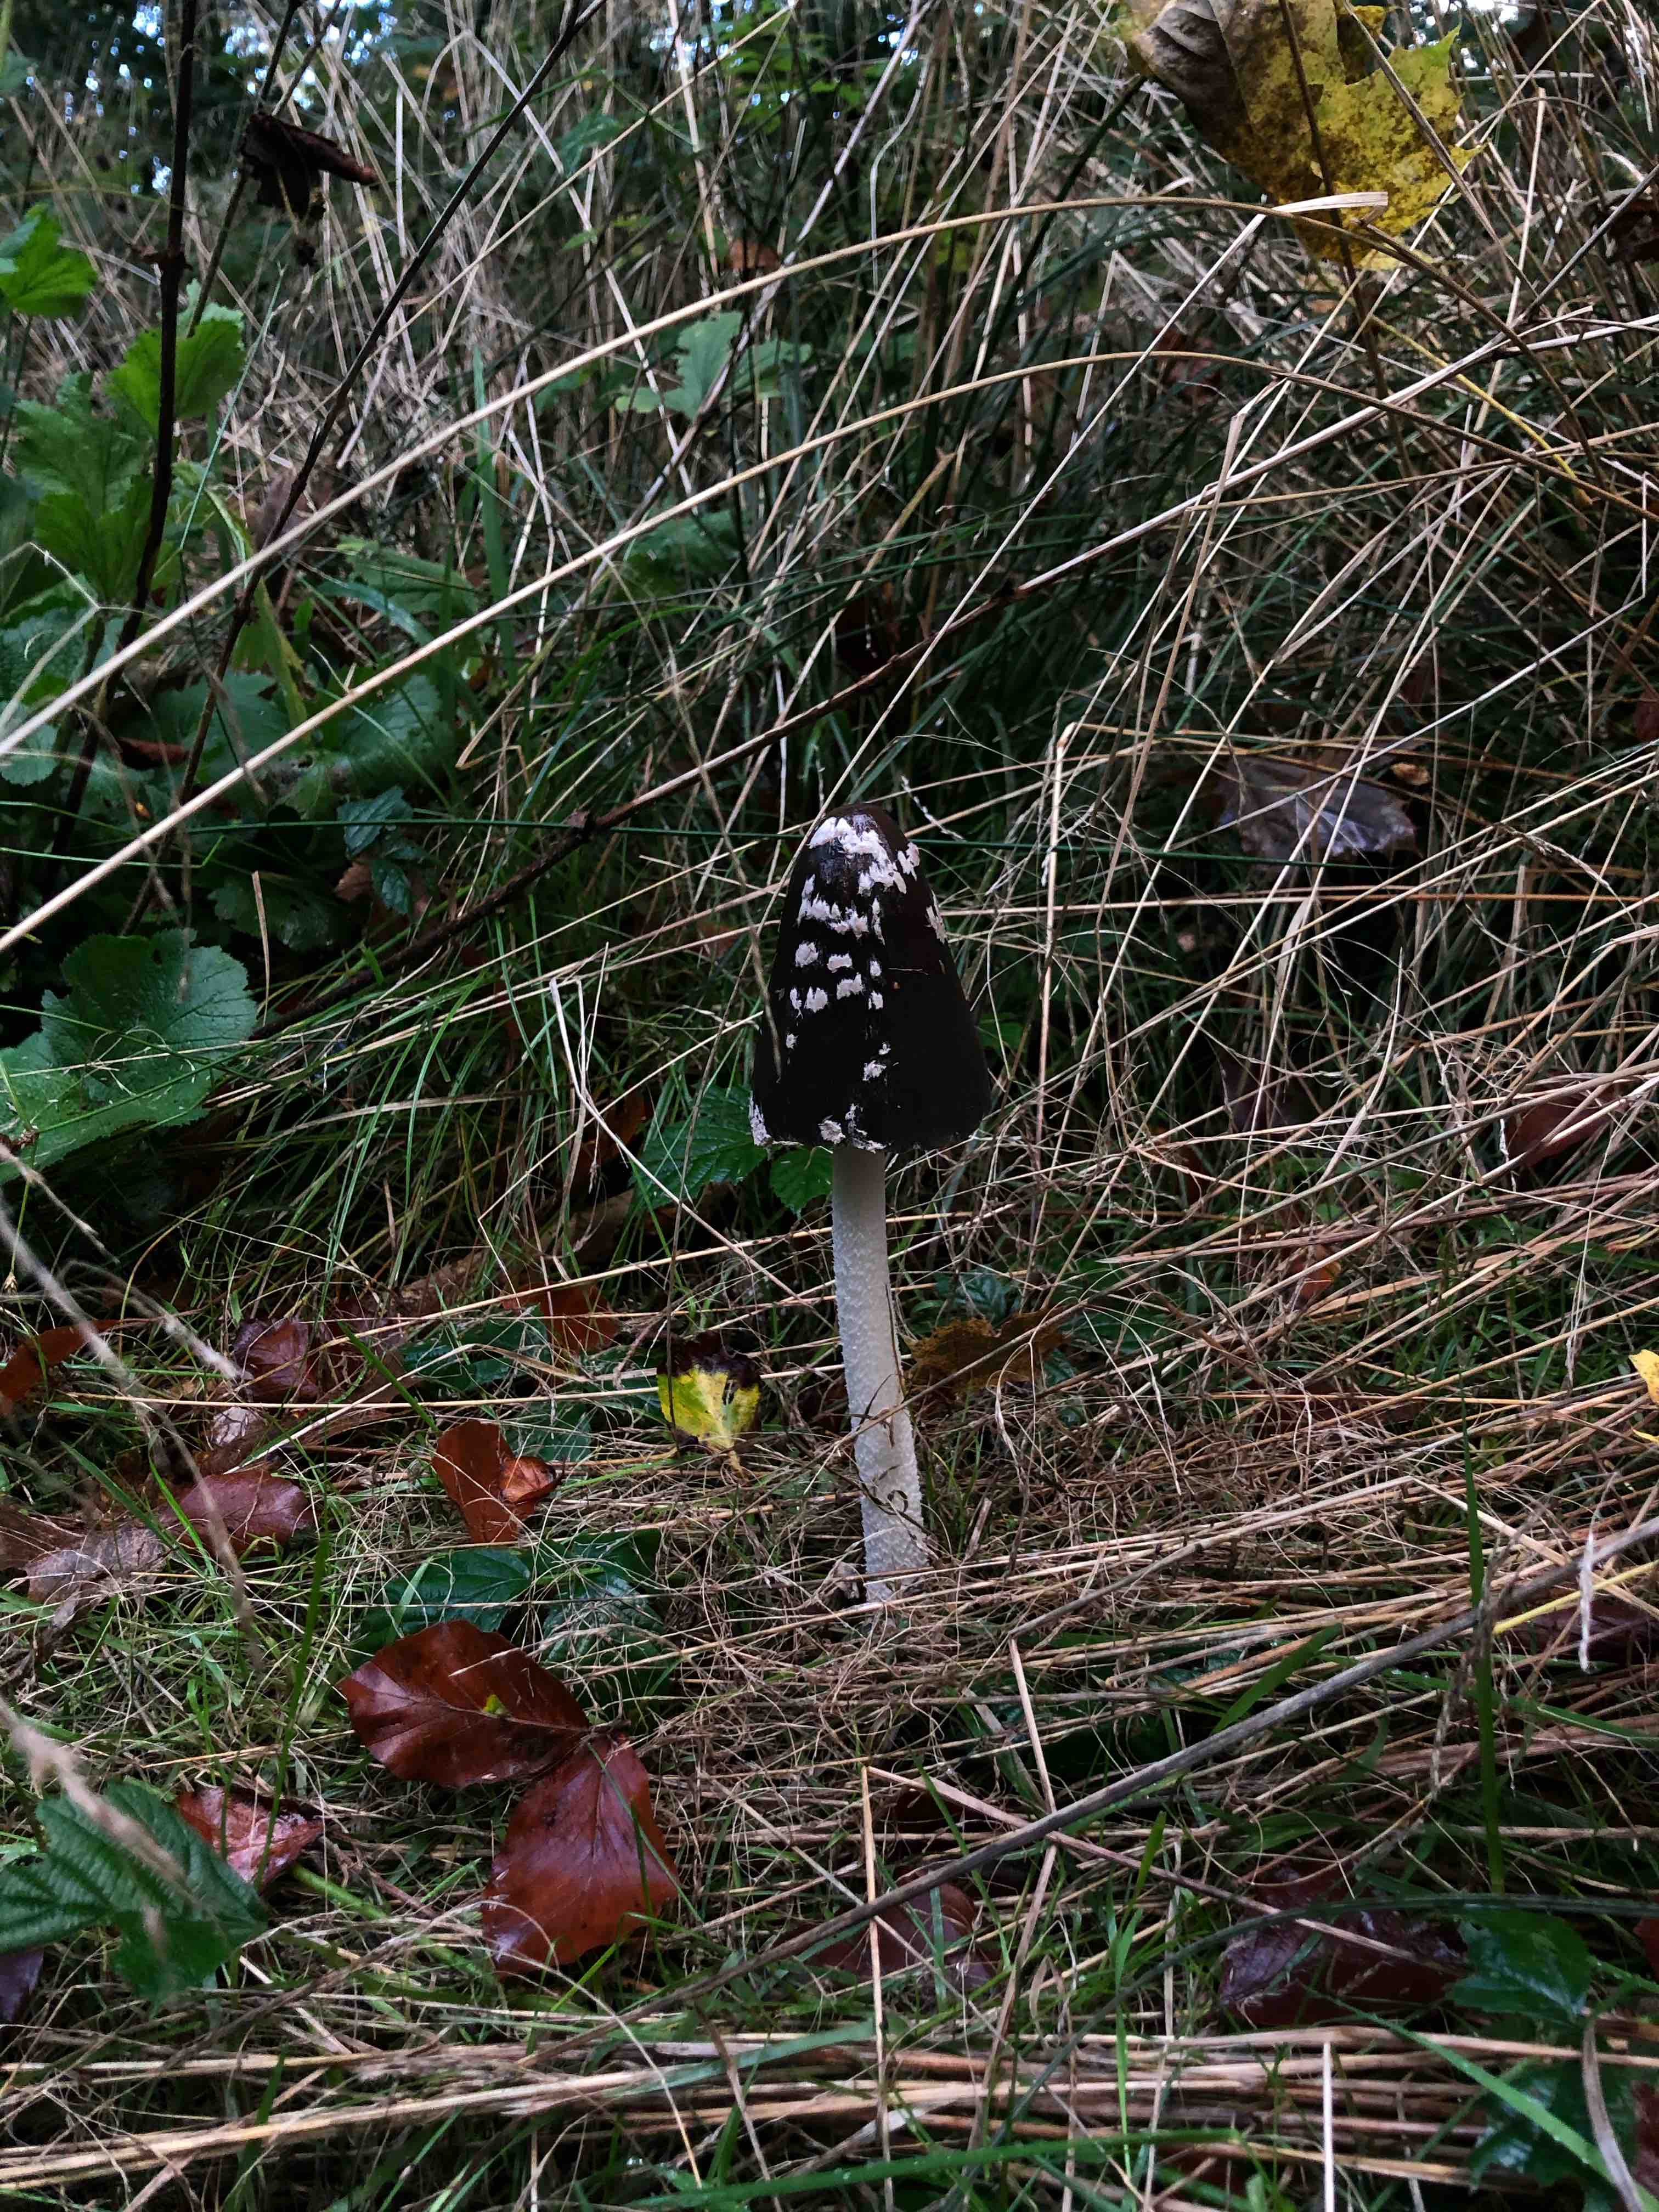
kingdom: Fungi
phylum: Basidiomycota
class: Agaricomycetes
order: Agaricales
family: Psathyrellaceae
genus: Coprinopsis
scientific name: Coprinopsis picacea
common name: skade-blækhat
